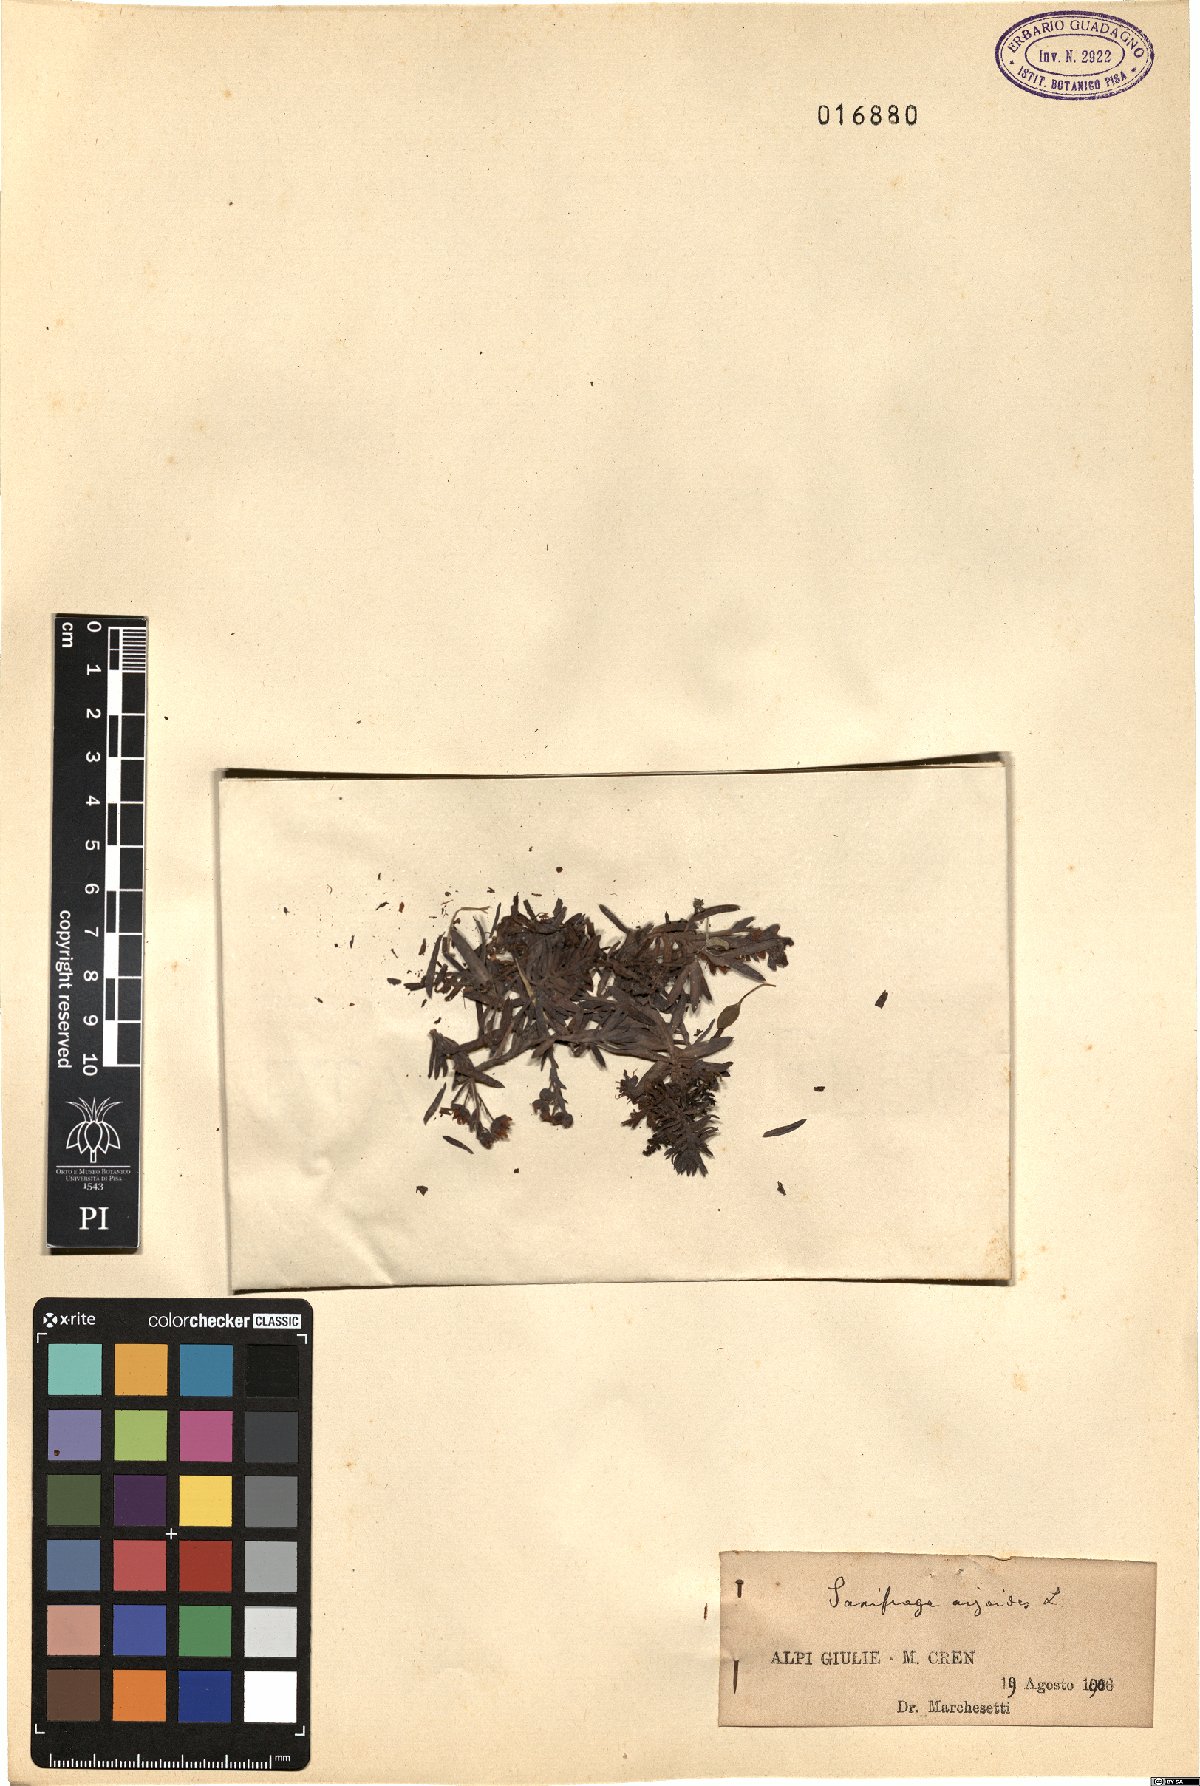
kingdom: Plantae
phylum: Tracheophyta
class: Magnoliopsida
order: Saxifragales
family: Saxifragaceae
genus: Saxifraga
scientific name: Saxifraga aizoides
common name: Yellow mountain saxifrage
